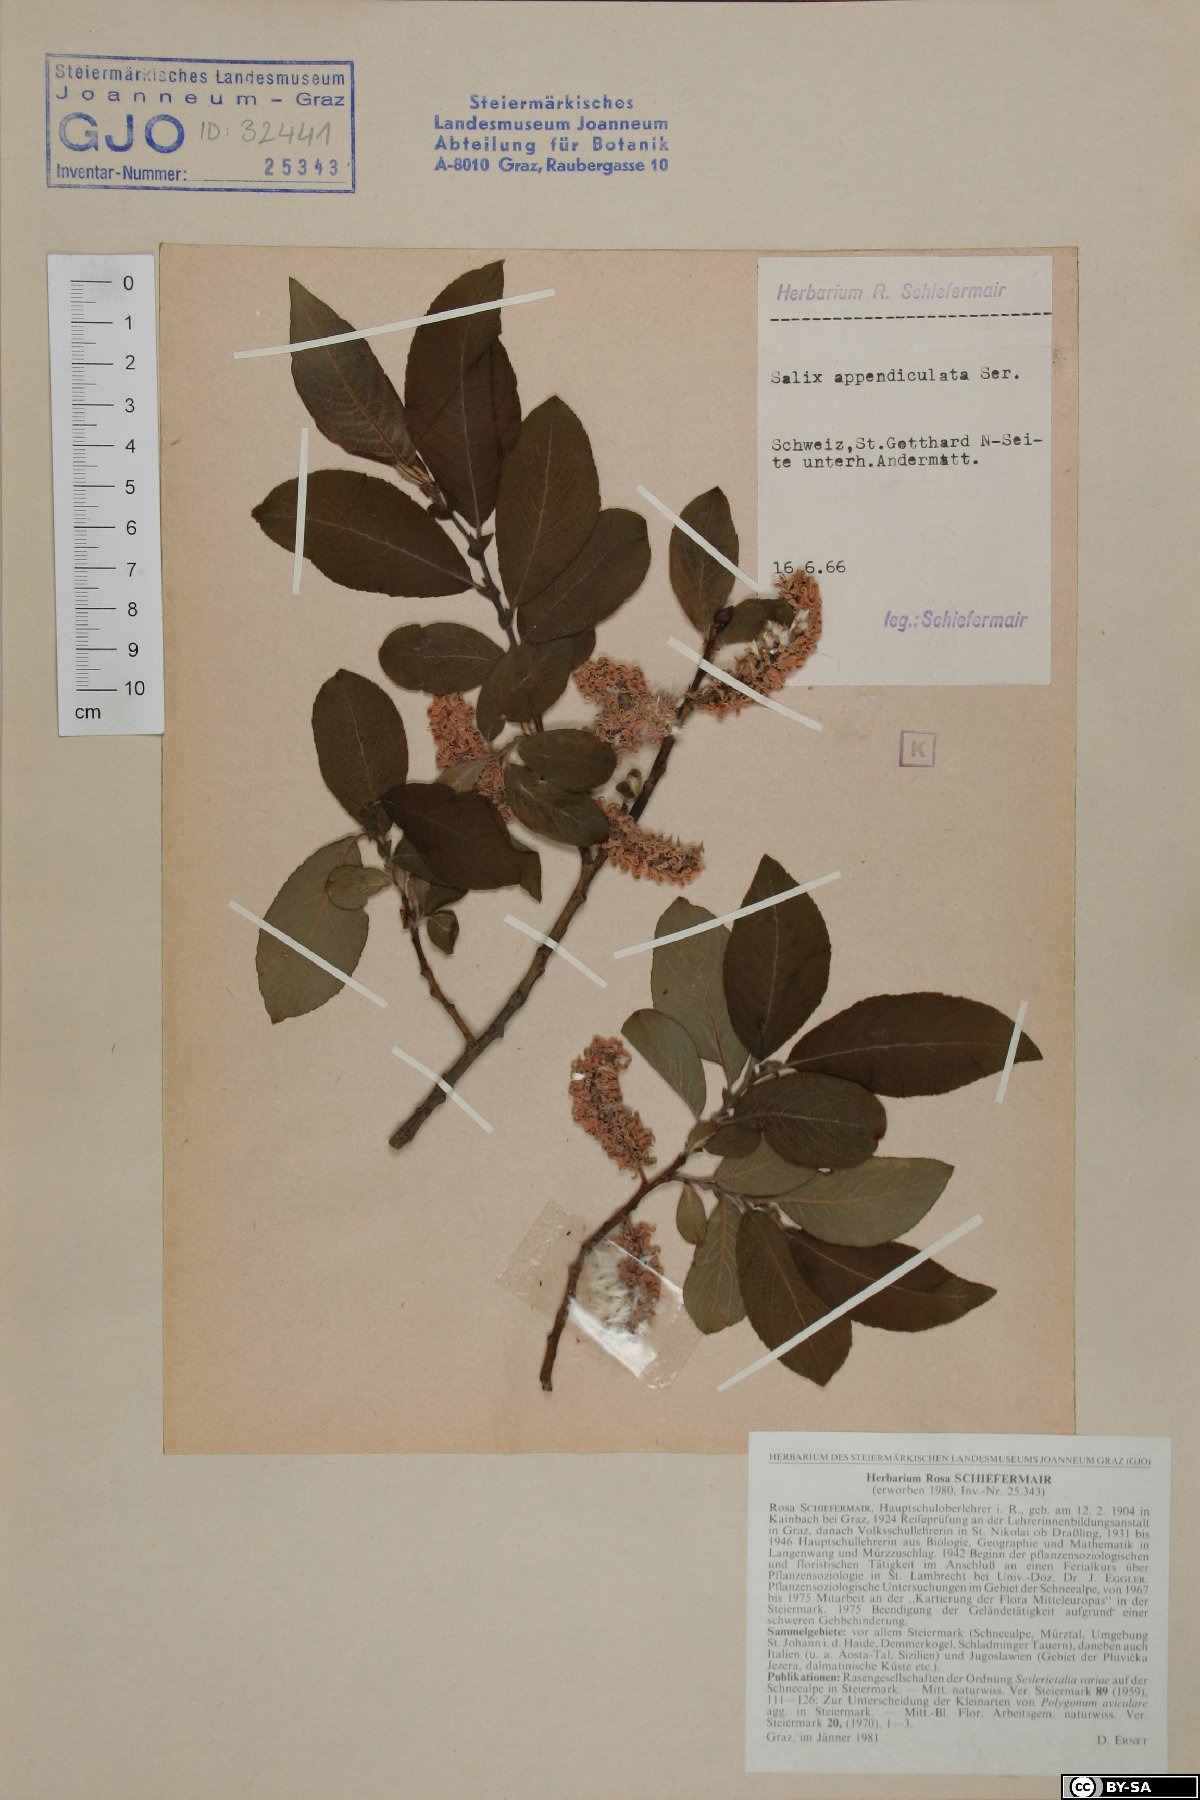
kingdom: Plantae
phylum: Tracheophyta
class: Magnoliopsida
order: Malpighiales
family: Salicaceae
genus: Salix
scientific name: Salix appendiculata
